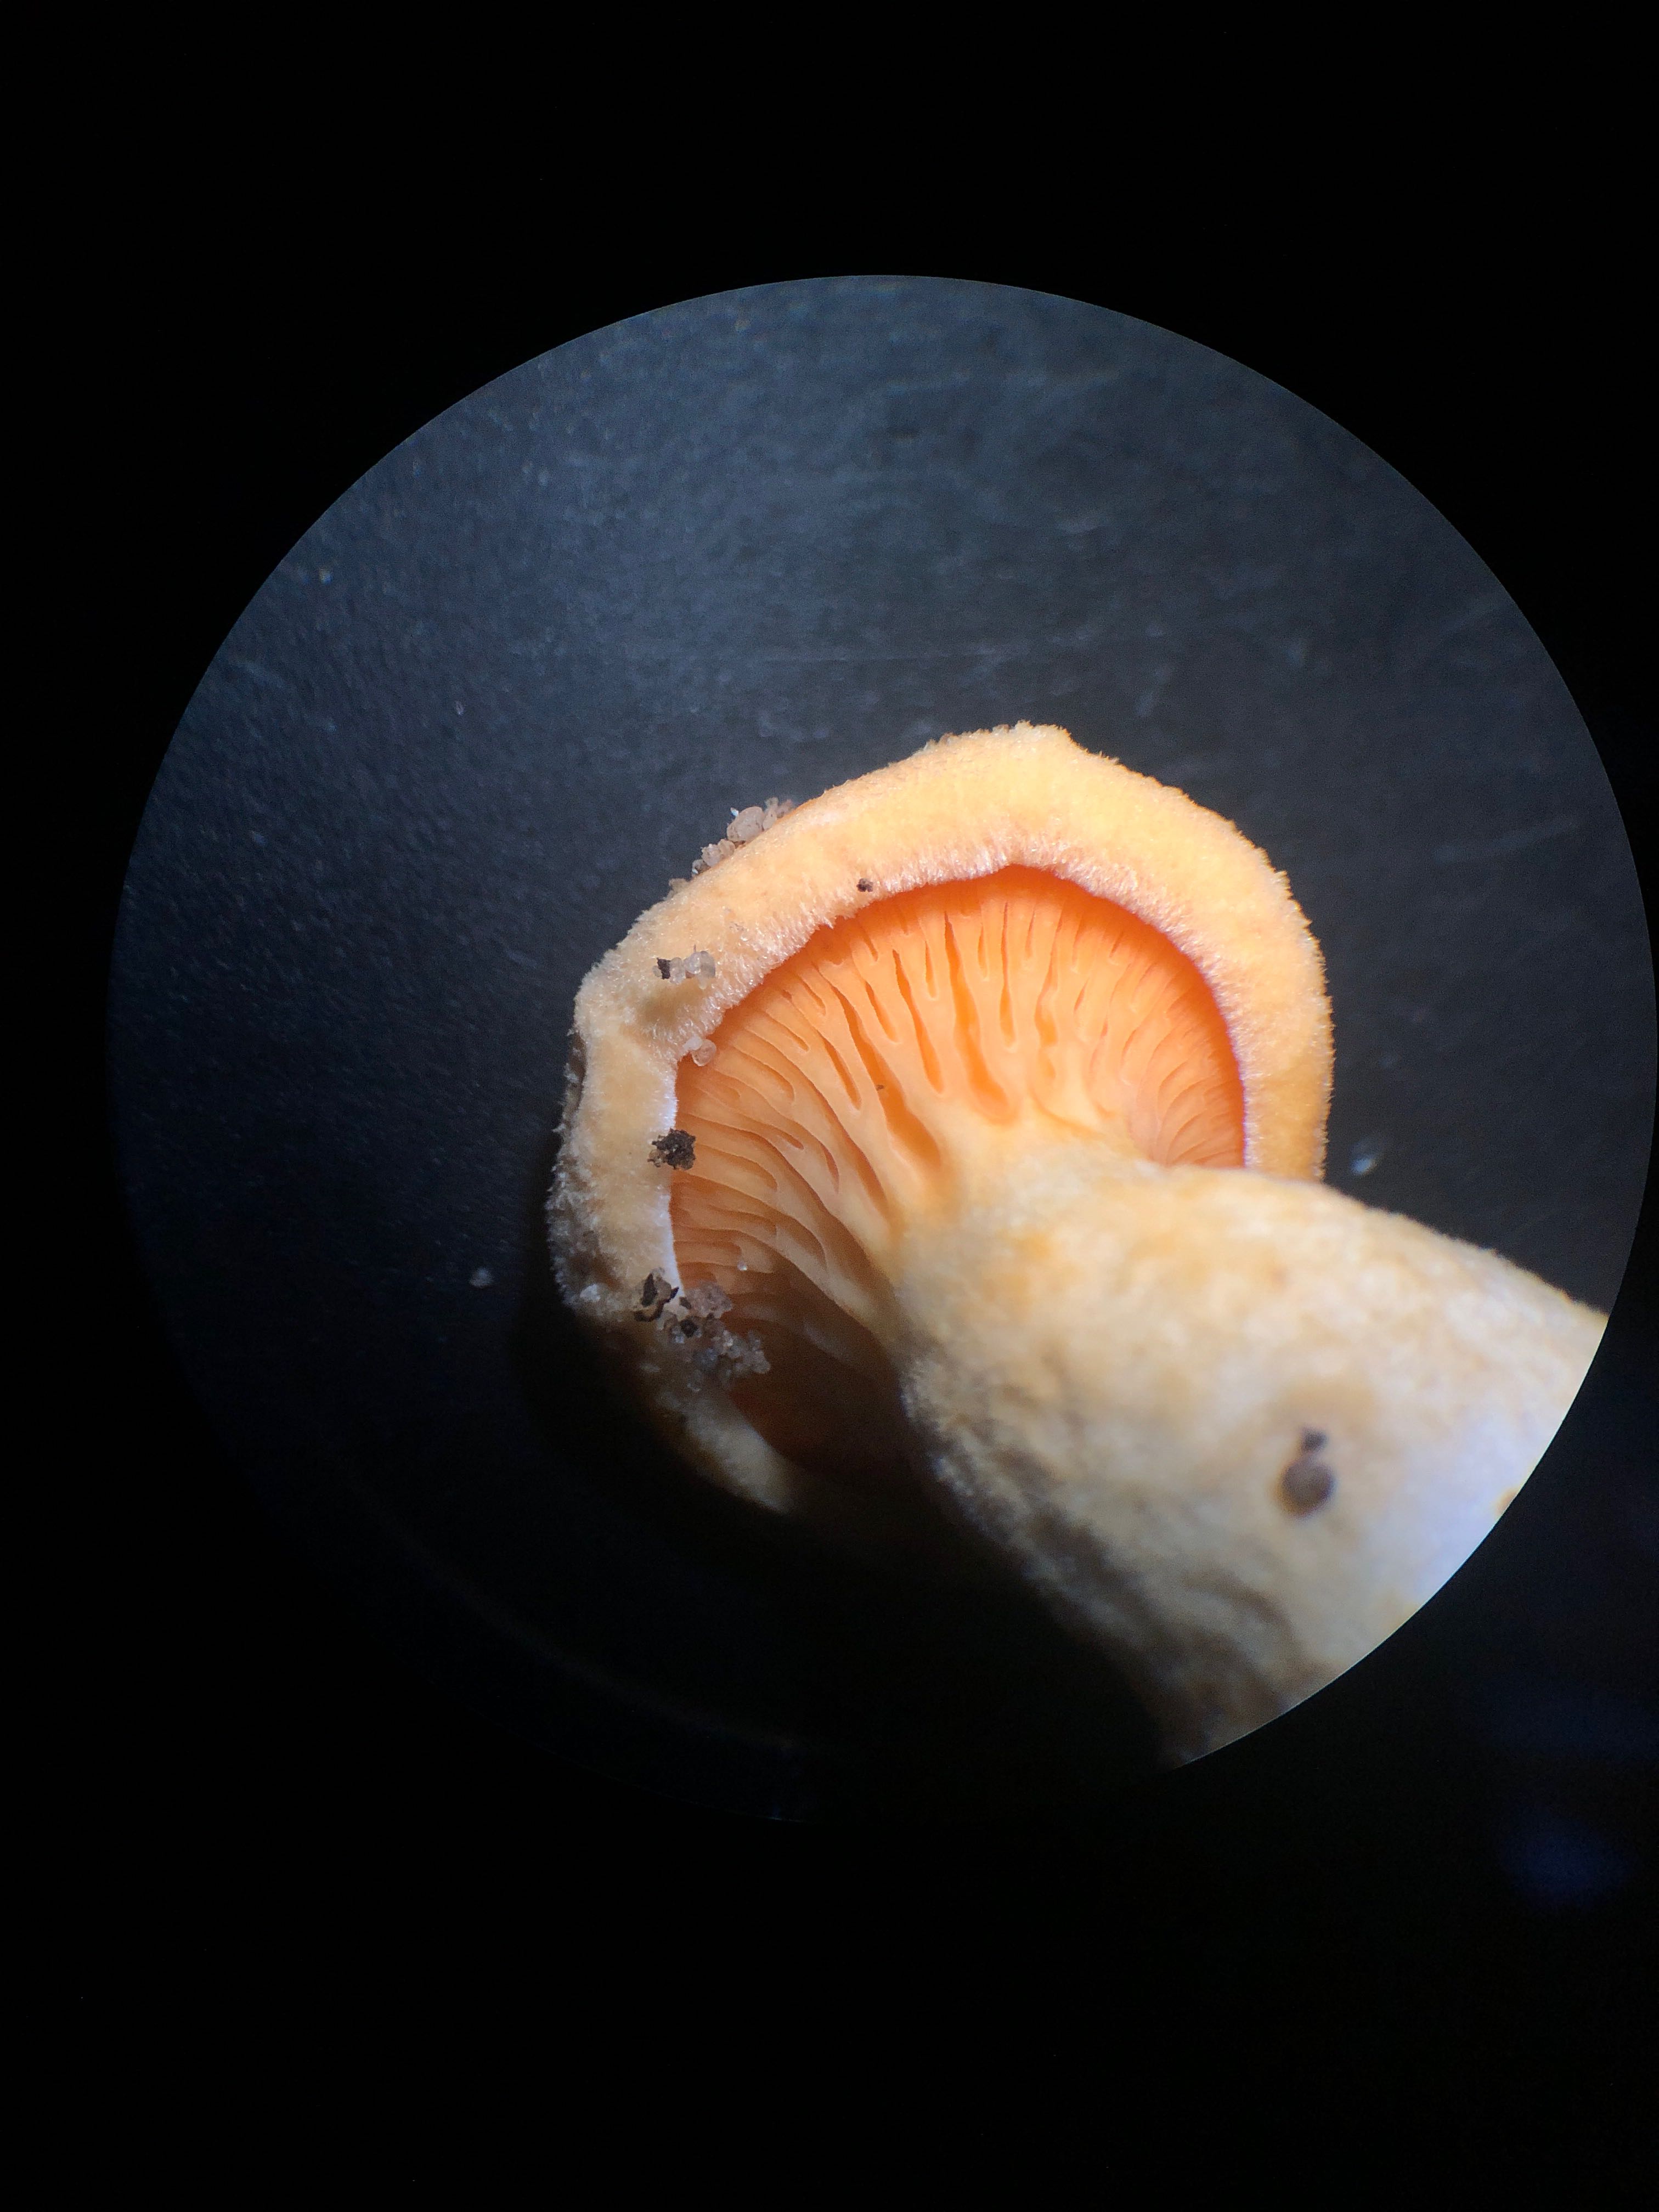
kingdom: Fungi
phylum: Basidiomycota
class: Agaricomycetes
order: Boletales
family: Hygrophoropsidaceae
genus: Hygrophoropsis
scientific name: Hygrophoropsis aurantiaca
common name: almindelig orangekantarel
